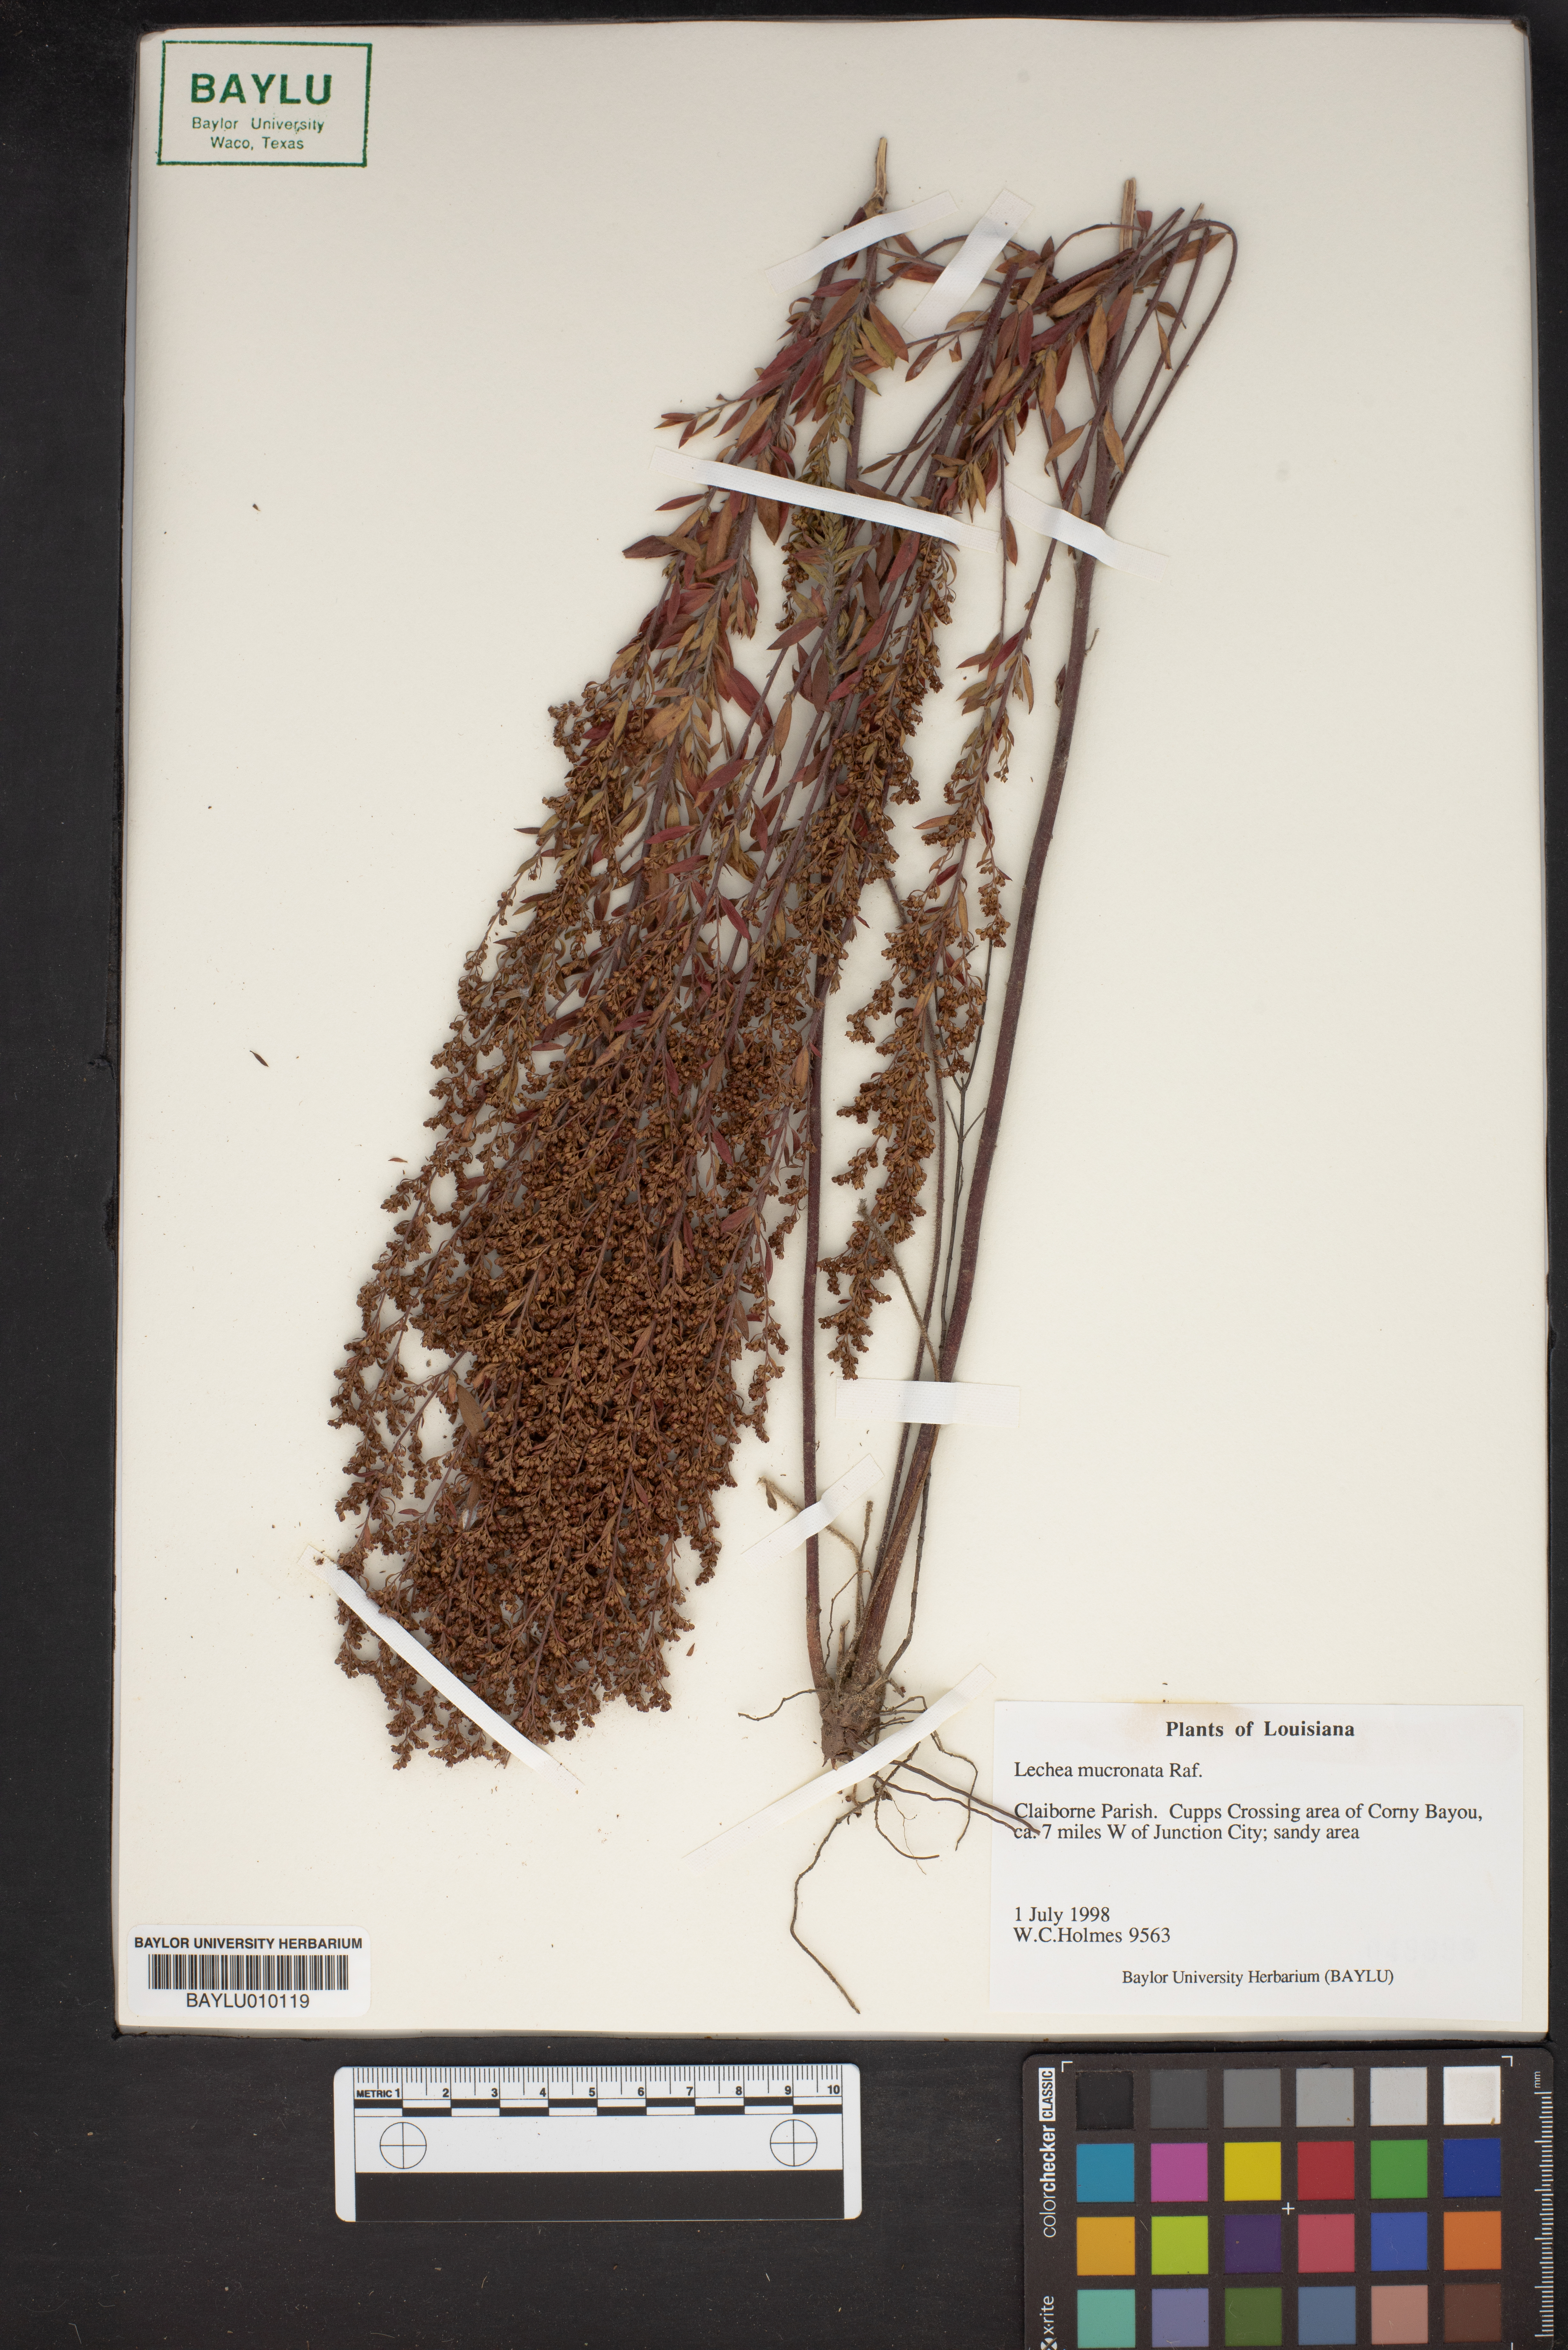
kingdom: Plantae
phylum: Tracheophyta
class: Magnoliopsida
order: Malvales
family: Cistaceae
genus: Lechea
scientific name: Lechea mucronata
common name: Hairy pinweed
